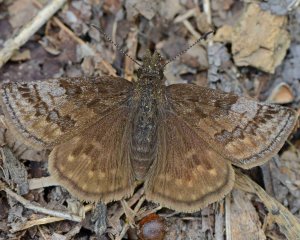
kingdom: Animalia
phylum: Arthropoda
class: Insecta
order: Lepidoptera
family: Hesperiidae
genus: Erynnis
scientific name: Erynnis icelus
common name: Dreamy Duskywing
